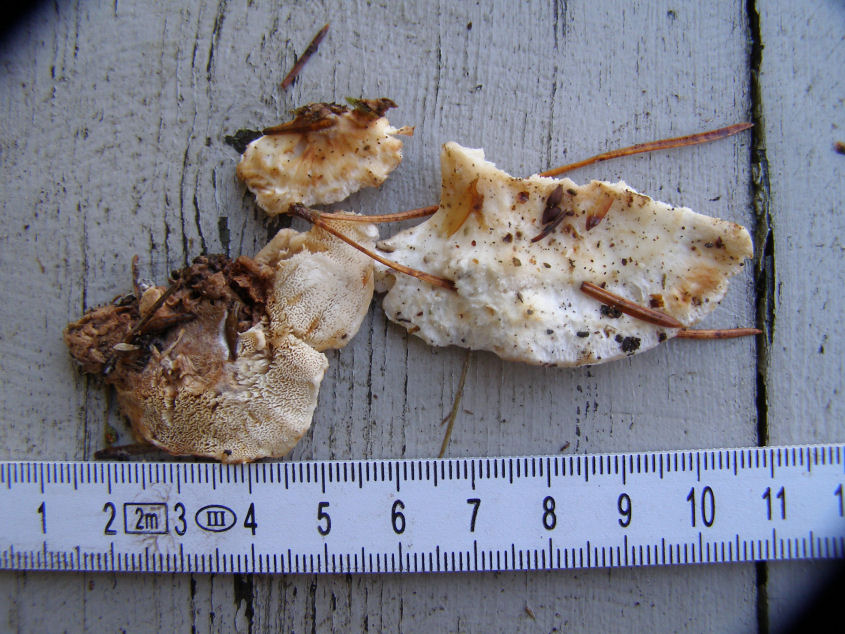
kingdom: Fungi
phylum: Basidiomycota
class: Agaricomycetes
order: Polyporales
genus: Fuscopostia
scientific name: Fuscopostia fragilis
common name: brunende kødporesvamp
